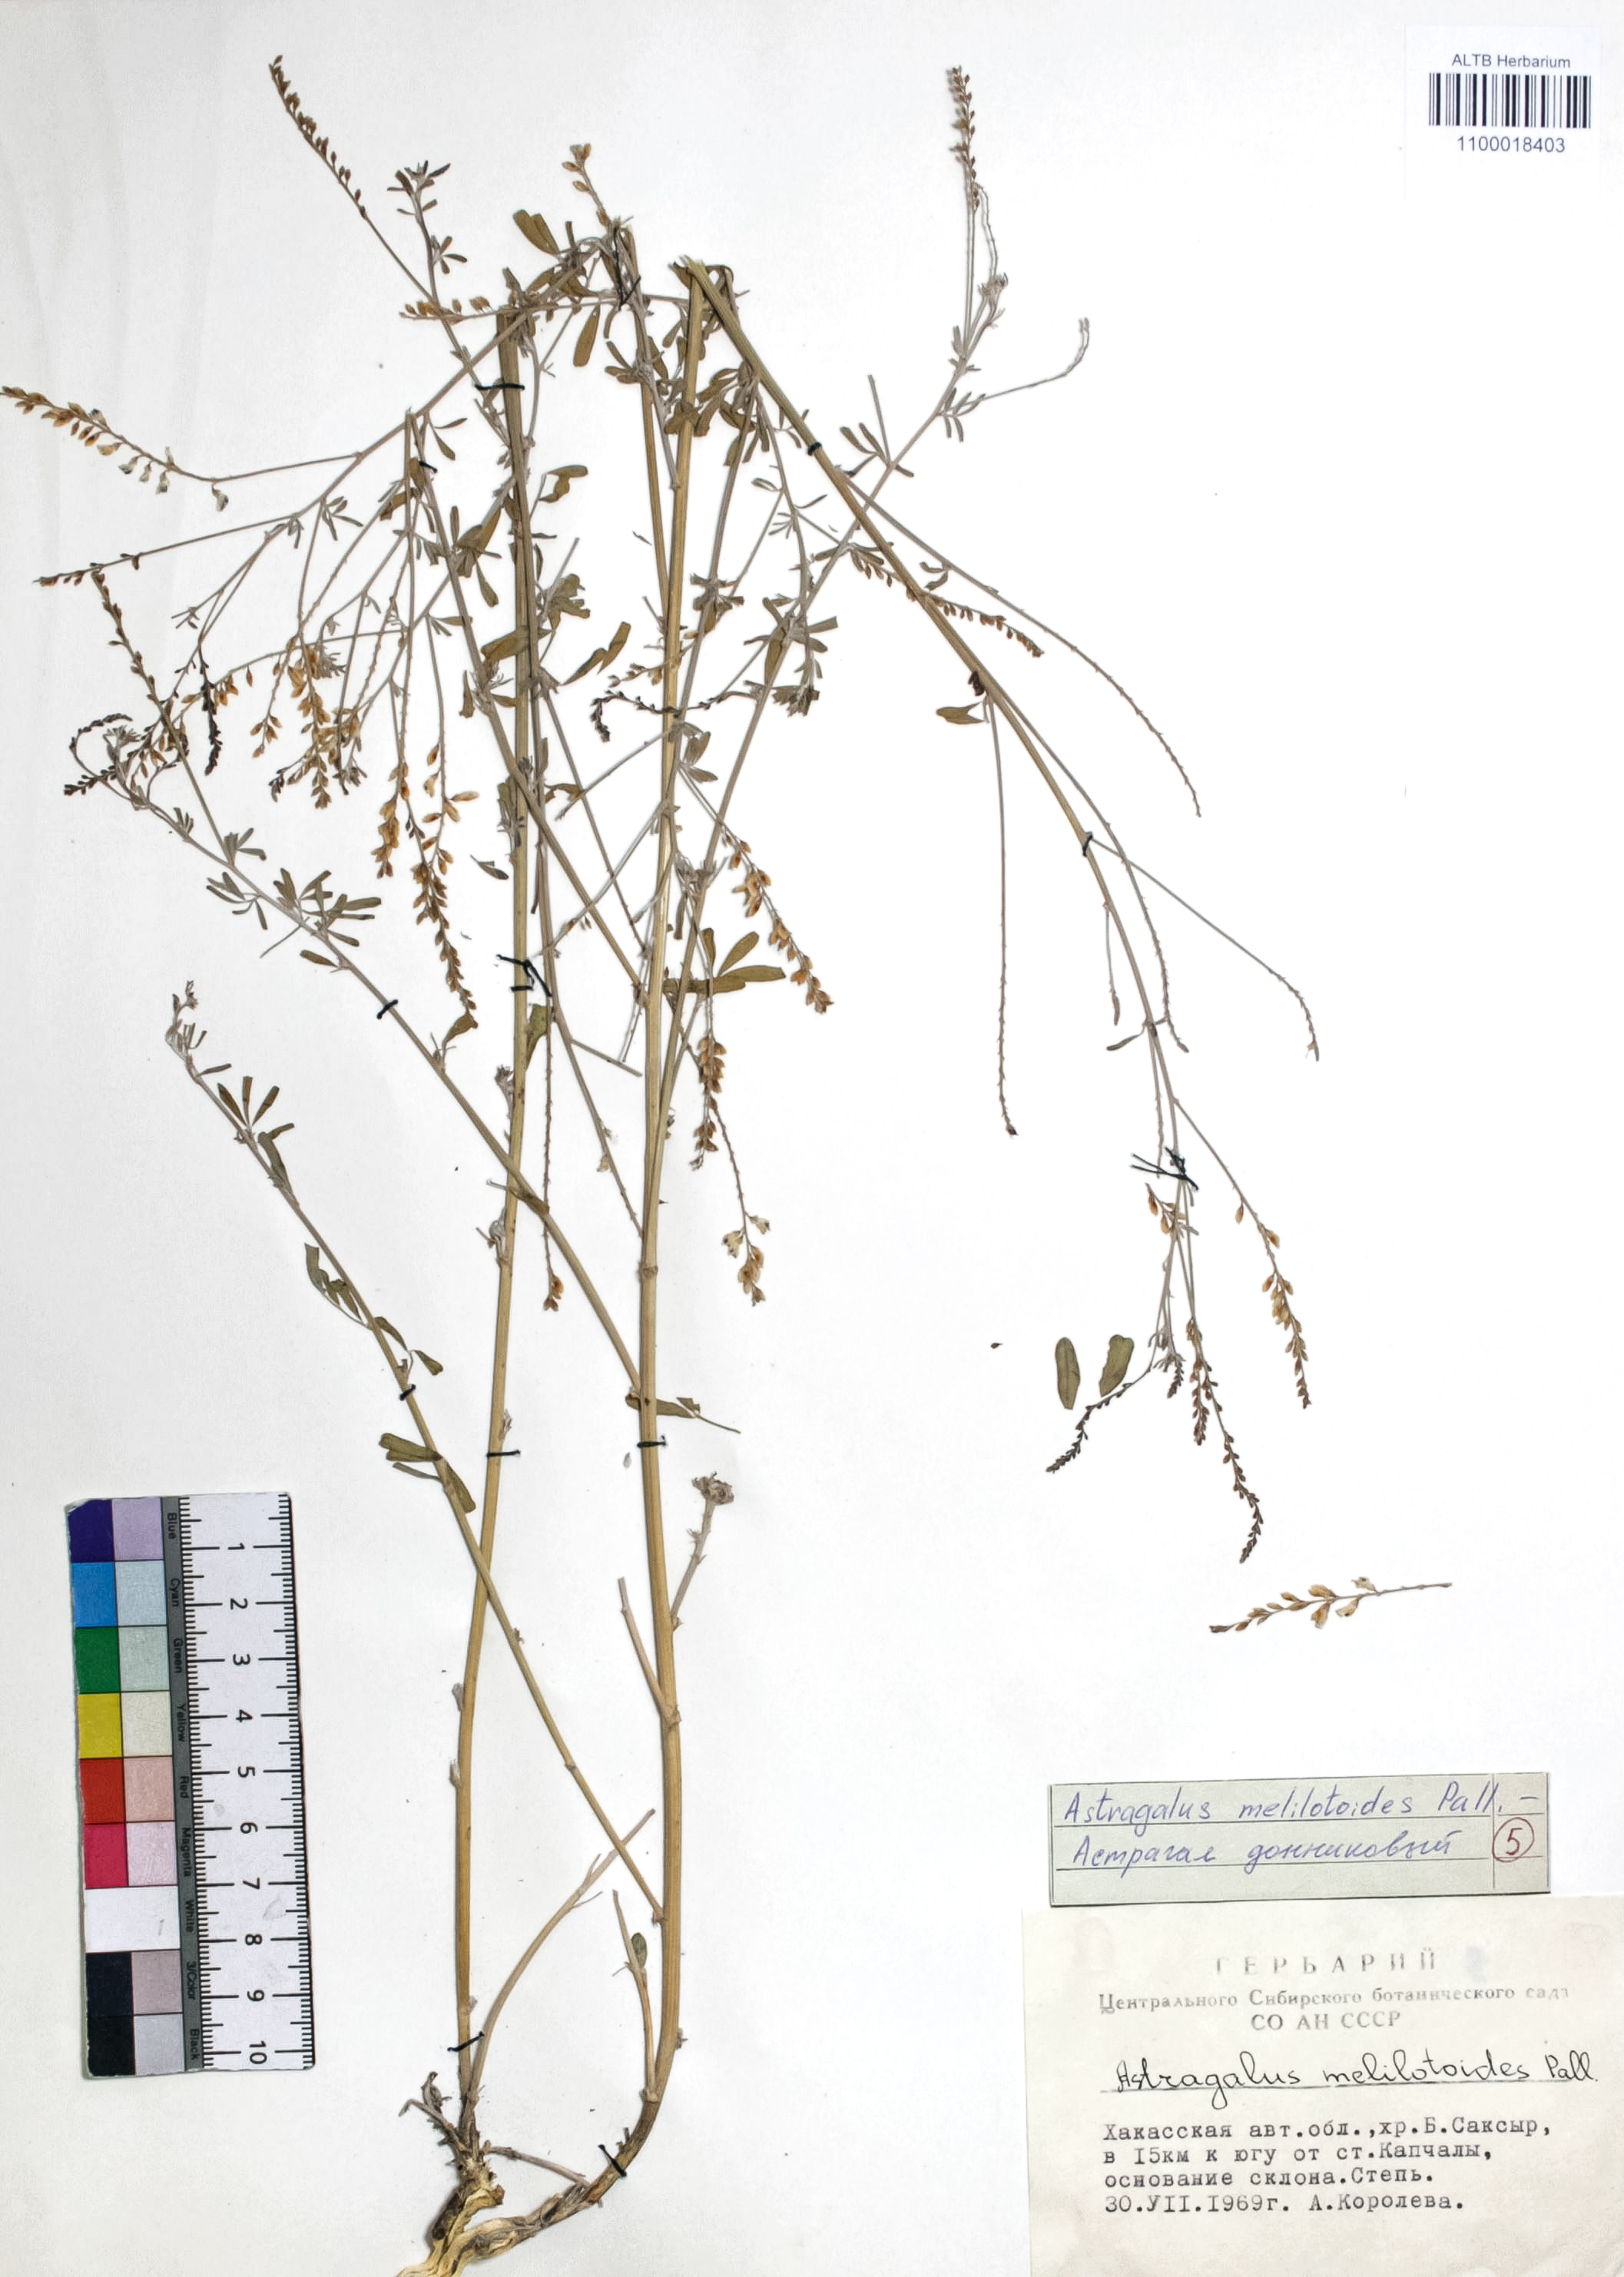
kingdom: Plantae
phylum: Tracheophyta
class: Magnoliopsida
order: Fabales
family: Fabaceae
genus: Astragalus
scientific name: Astragalus melilotoides
